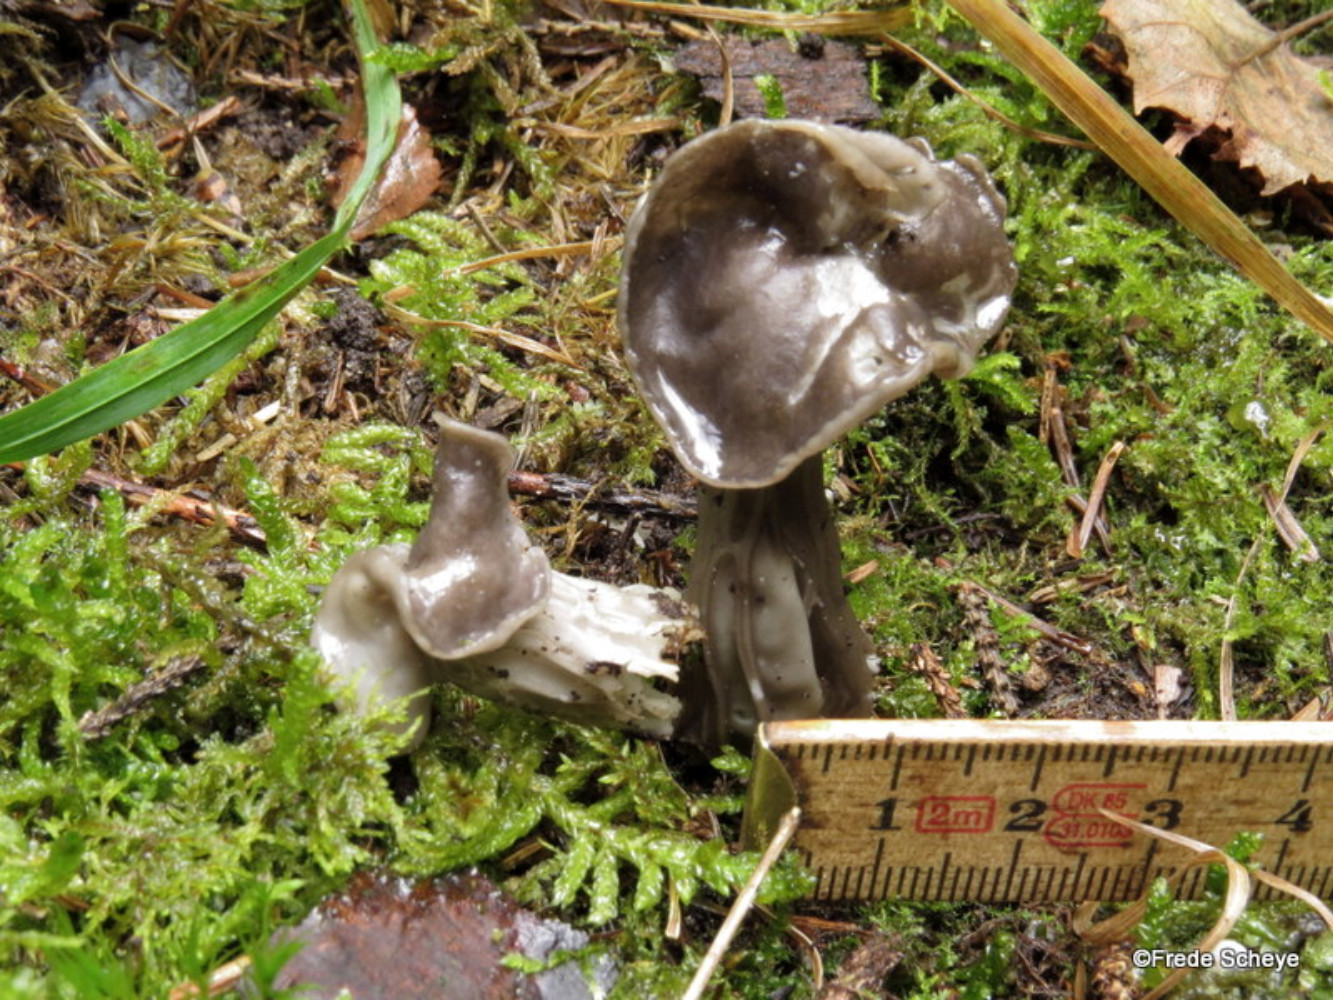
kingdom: Fungi
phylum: Ascomycota
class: Pezizomycetes
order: Pezizales
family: Helvellaceae
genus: Helvella
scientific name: Helvella lacunosa
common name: grubet foldhat
